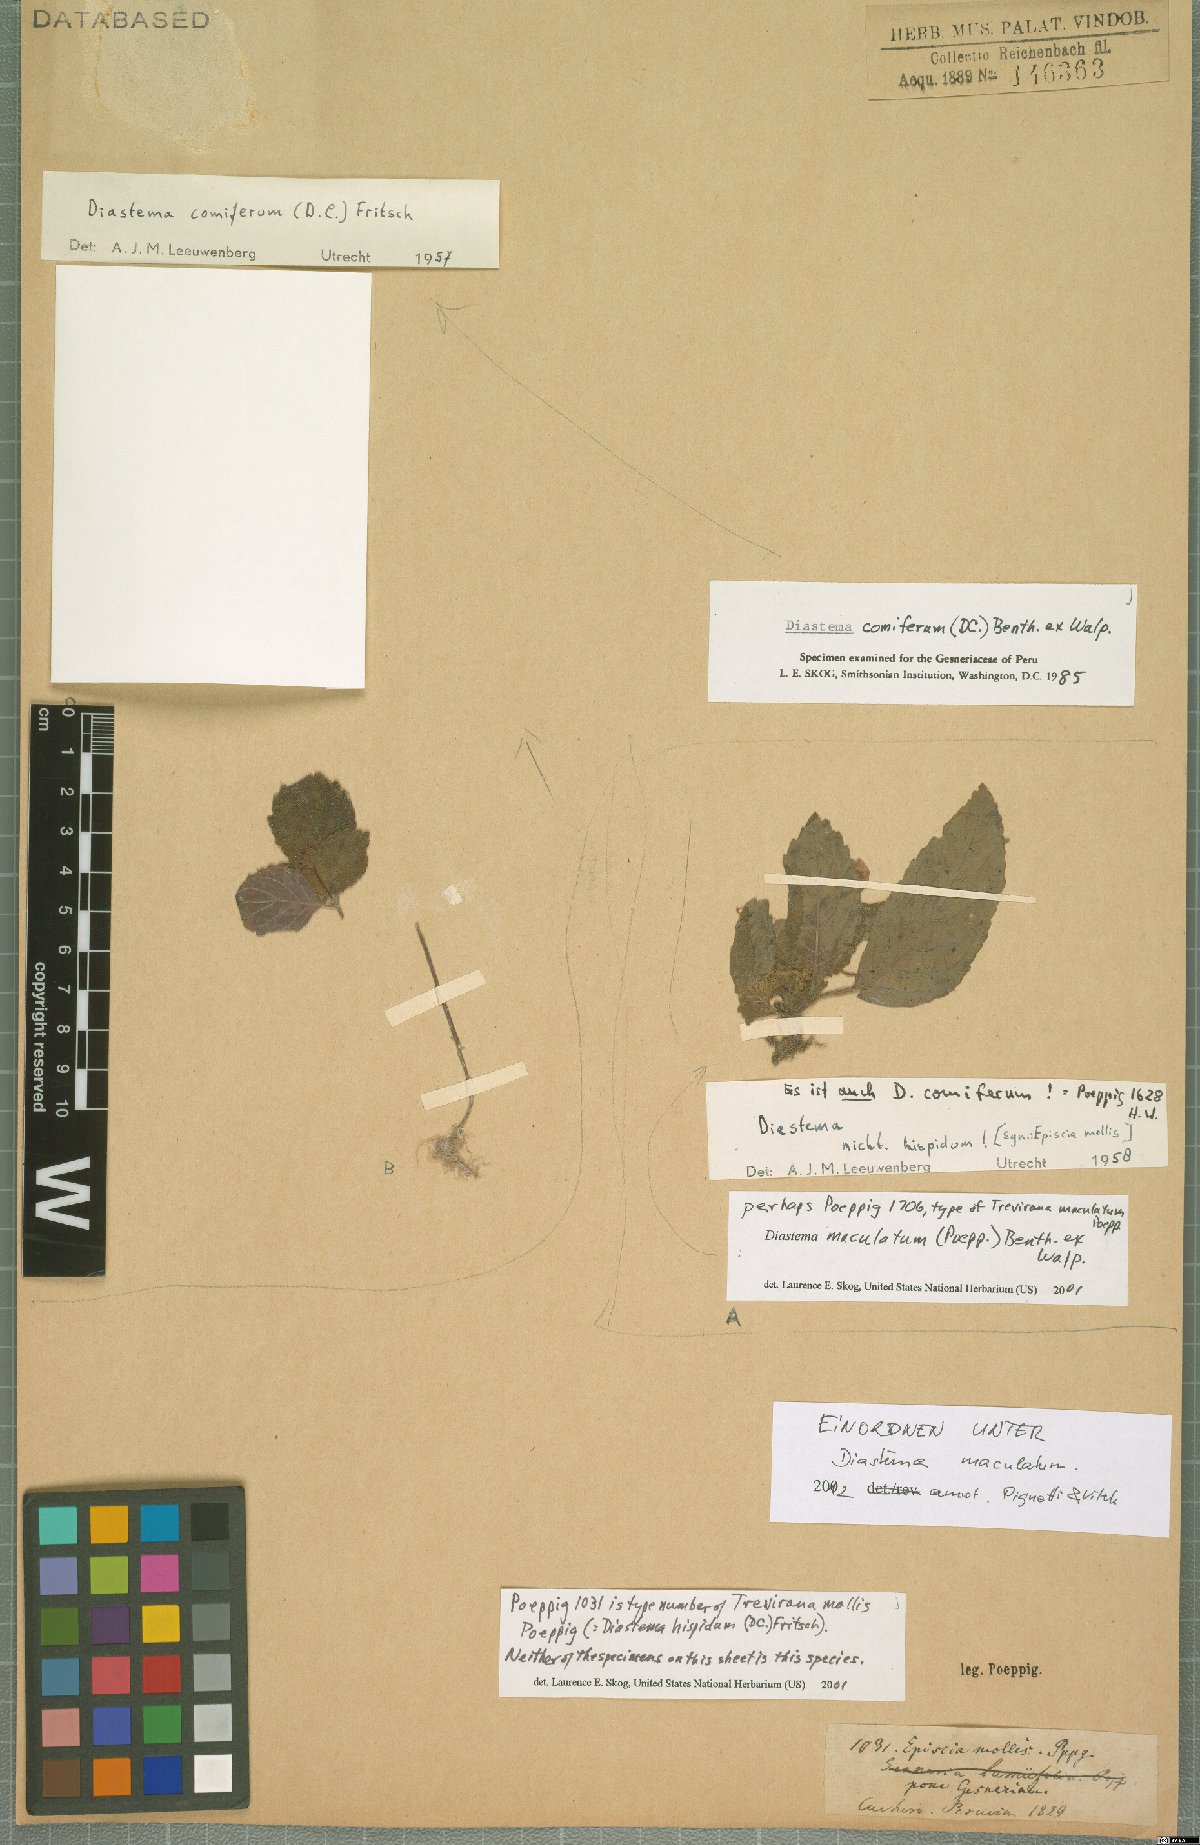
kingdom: Plantae
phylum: Tracheophyta
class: Magnoliopsida
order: Lamiales
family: Gesneriaceae
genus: Diastema
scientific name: Diastema comiferum
